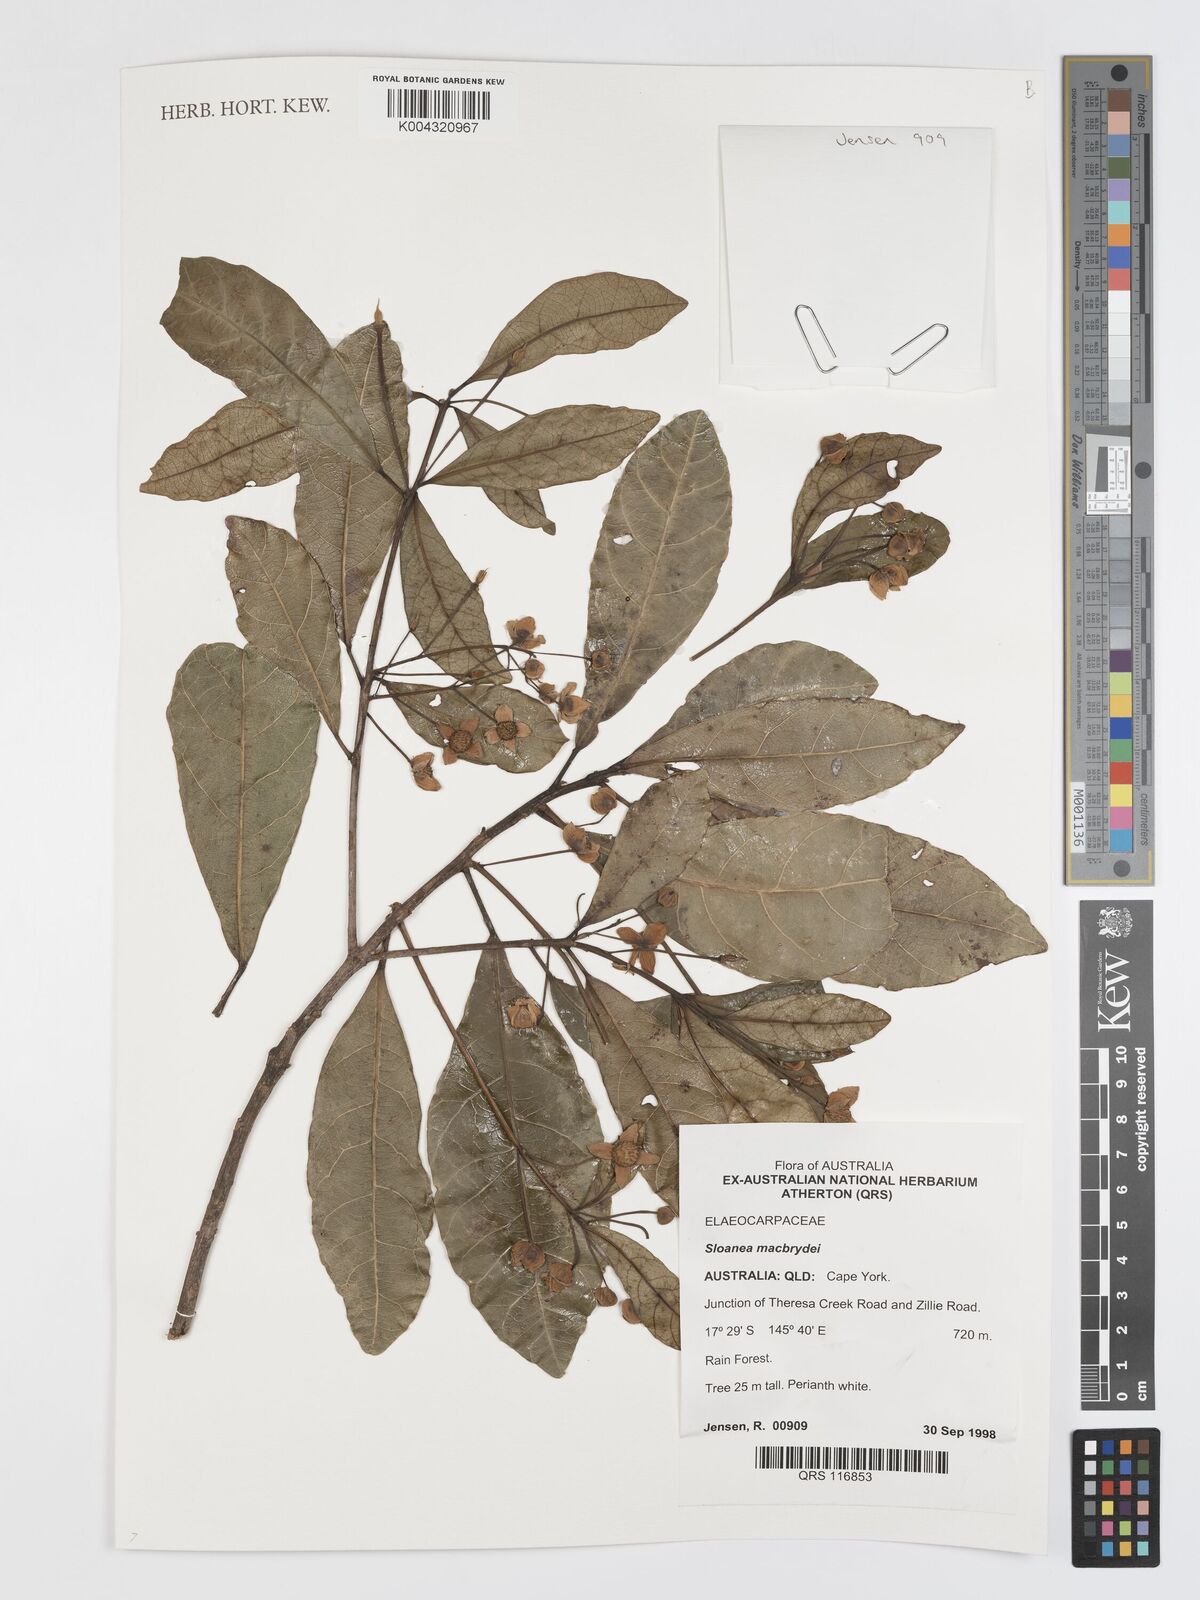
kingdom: Plantae
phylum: Tracheophyta
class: Magnoliopsida
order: Oxalidales
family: Elaeocarpaceae
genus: Sloanea
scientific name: Sloanea macbrydei
